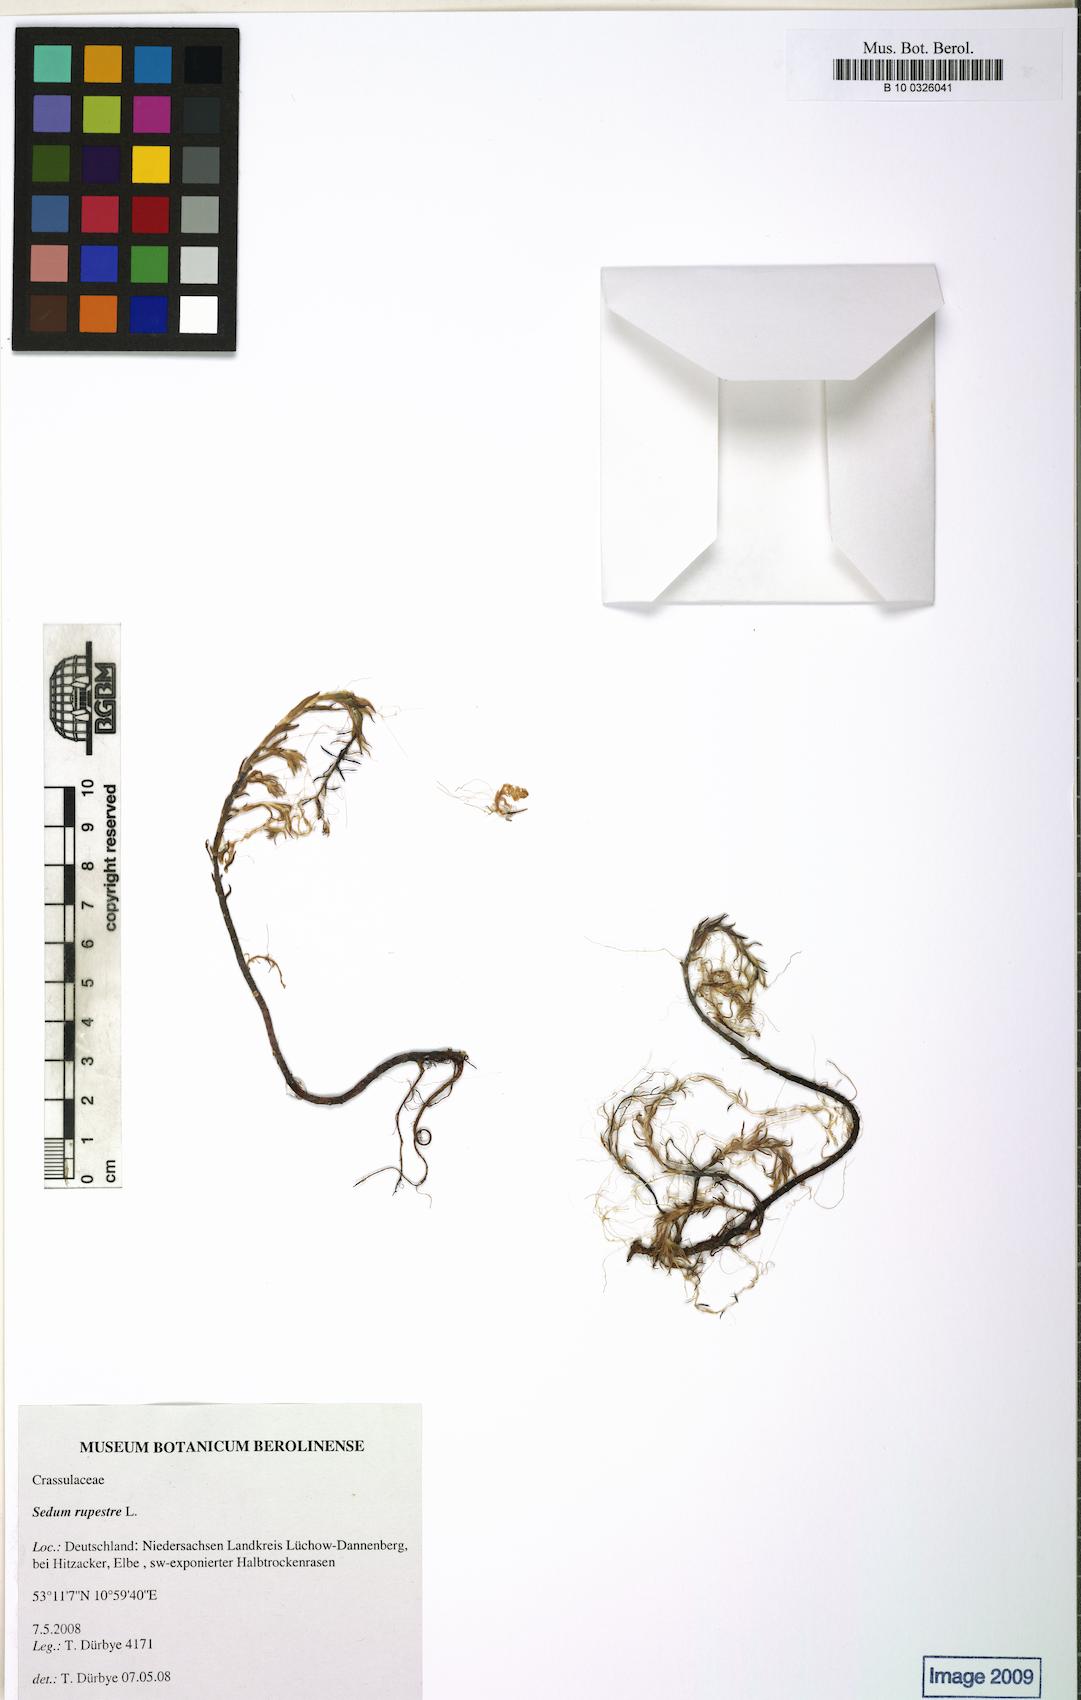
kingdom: Plantae
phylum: Tracheophyta
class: Magnoliopsida
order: Saxifragales
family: Crassulaceae
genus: Petrosedum
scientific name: Petrosedum rupestre
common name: Jenny's stonecrop
